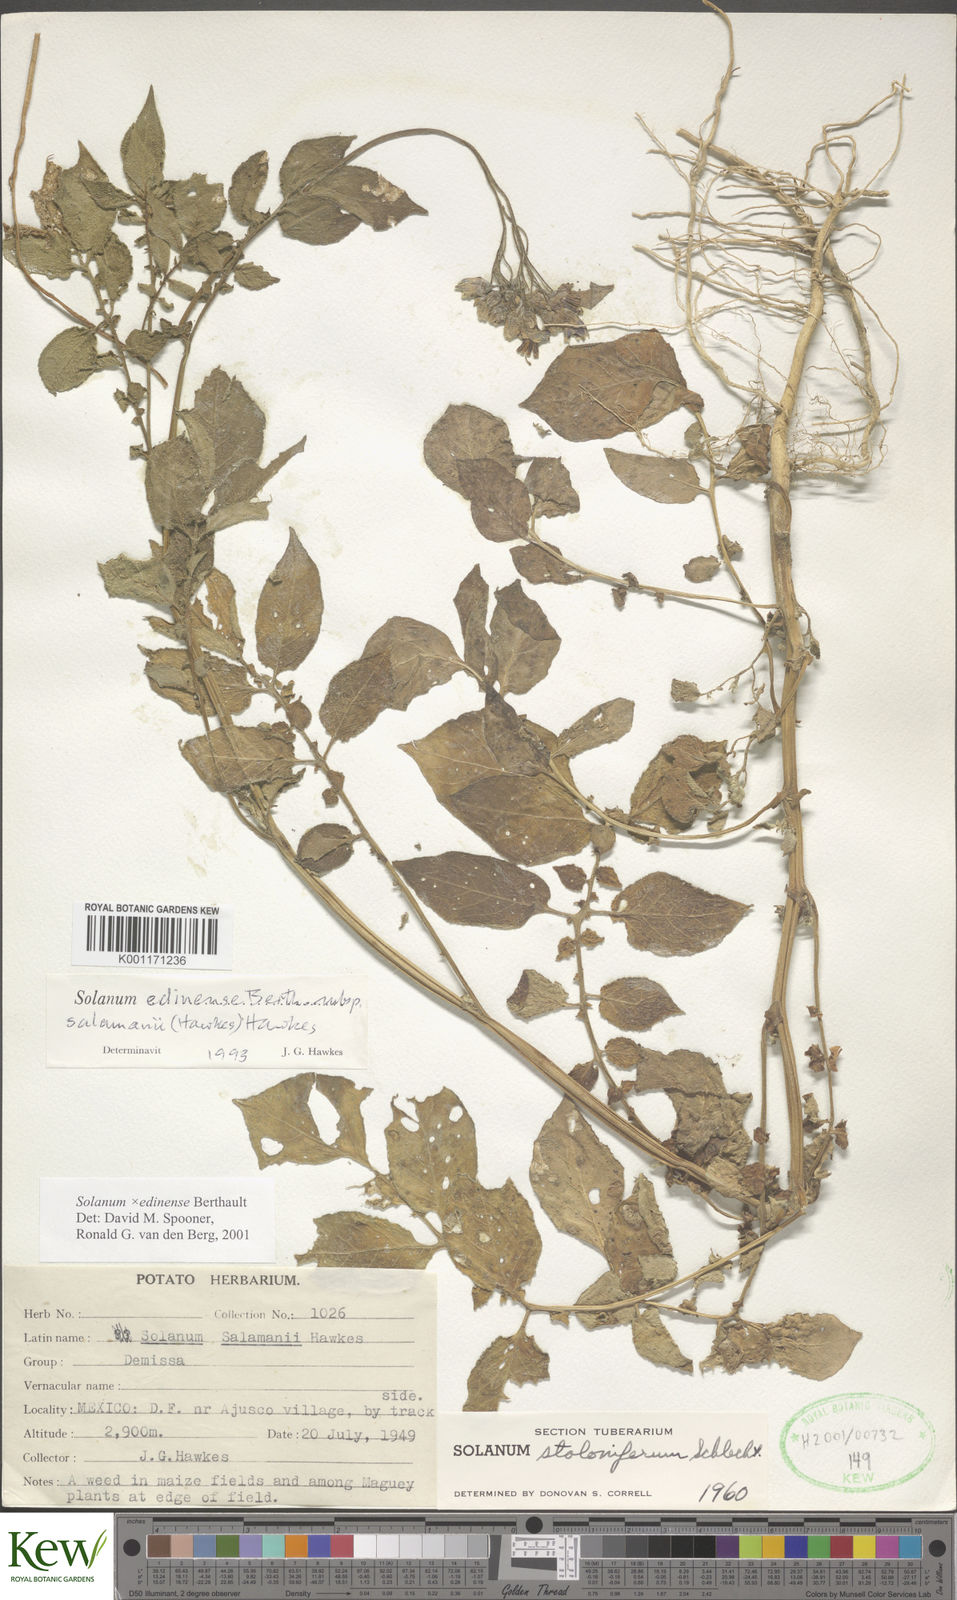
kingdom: Plantae
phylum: Tracheophyta
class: Magnoliopsida
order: Solanales
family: Solanaceae
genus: Solanum
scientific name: Solanum edinense
